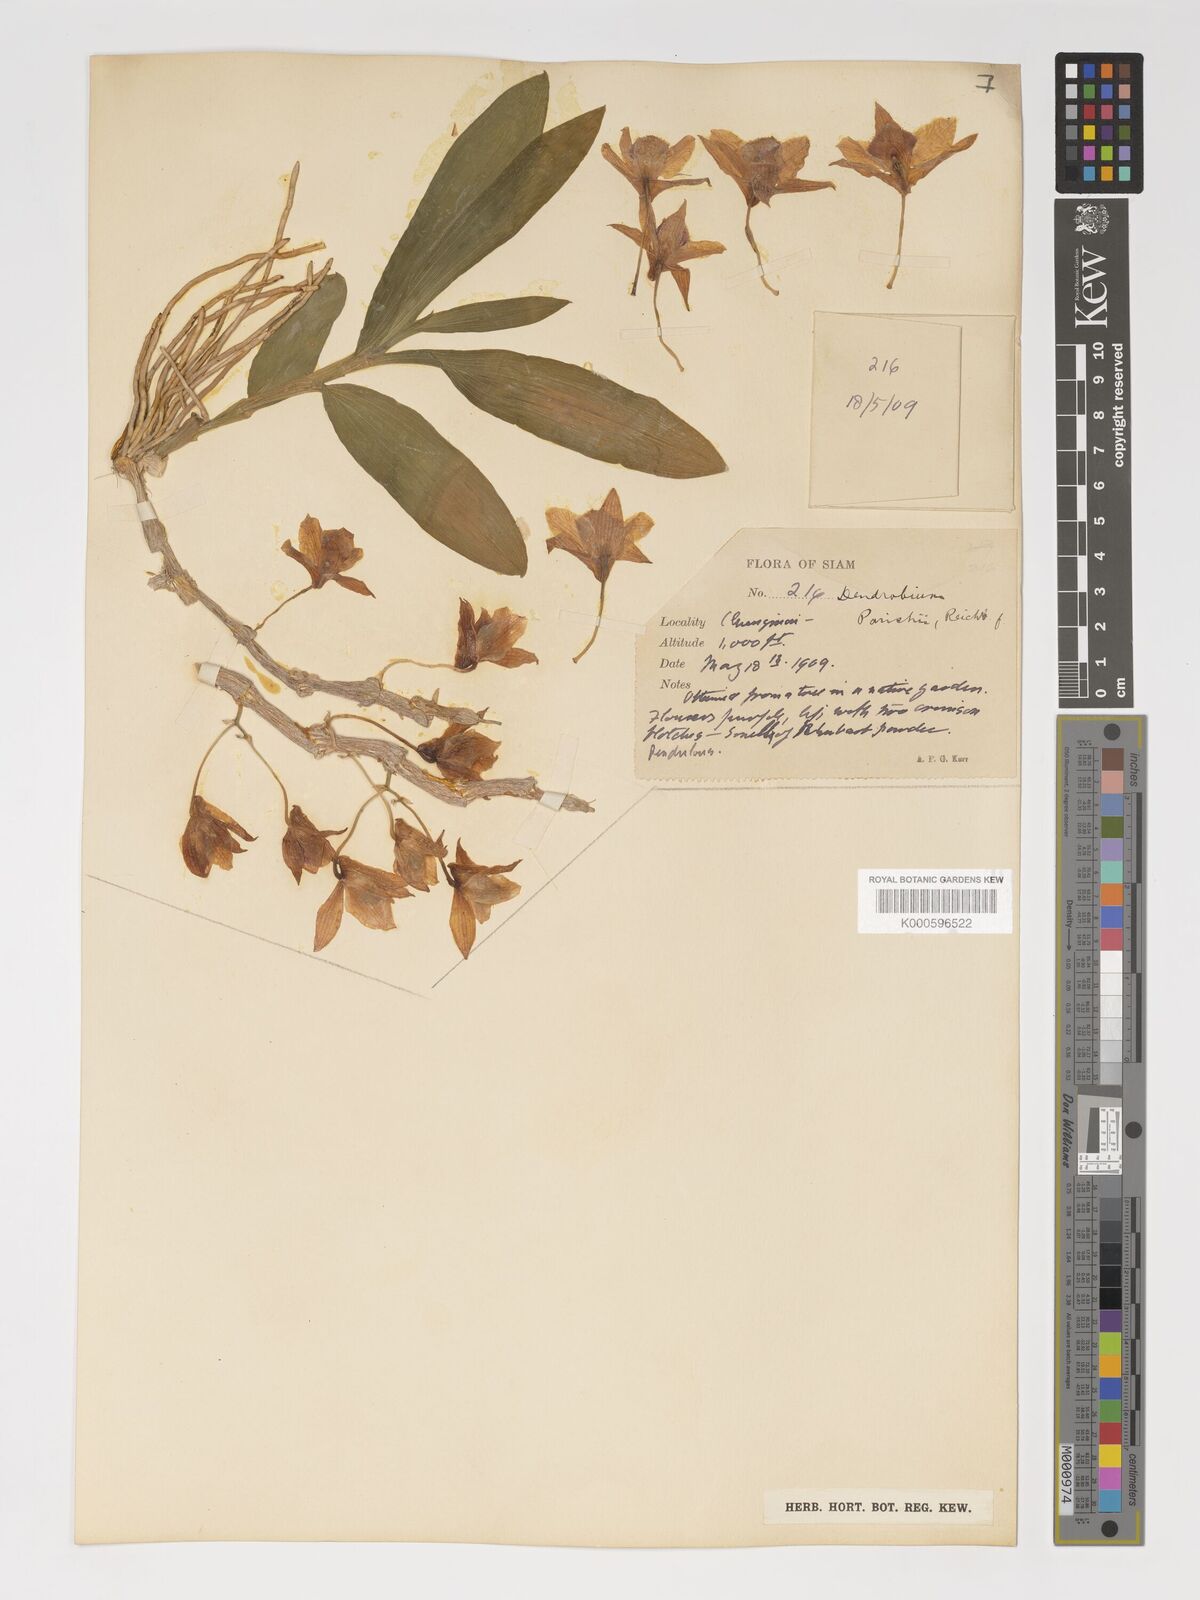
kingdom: Plantae
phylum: Tracheophyta
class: Liliopsida
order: Asparagales
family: Orchidaceae
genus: Dendrobium
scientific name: Dendrobium
